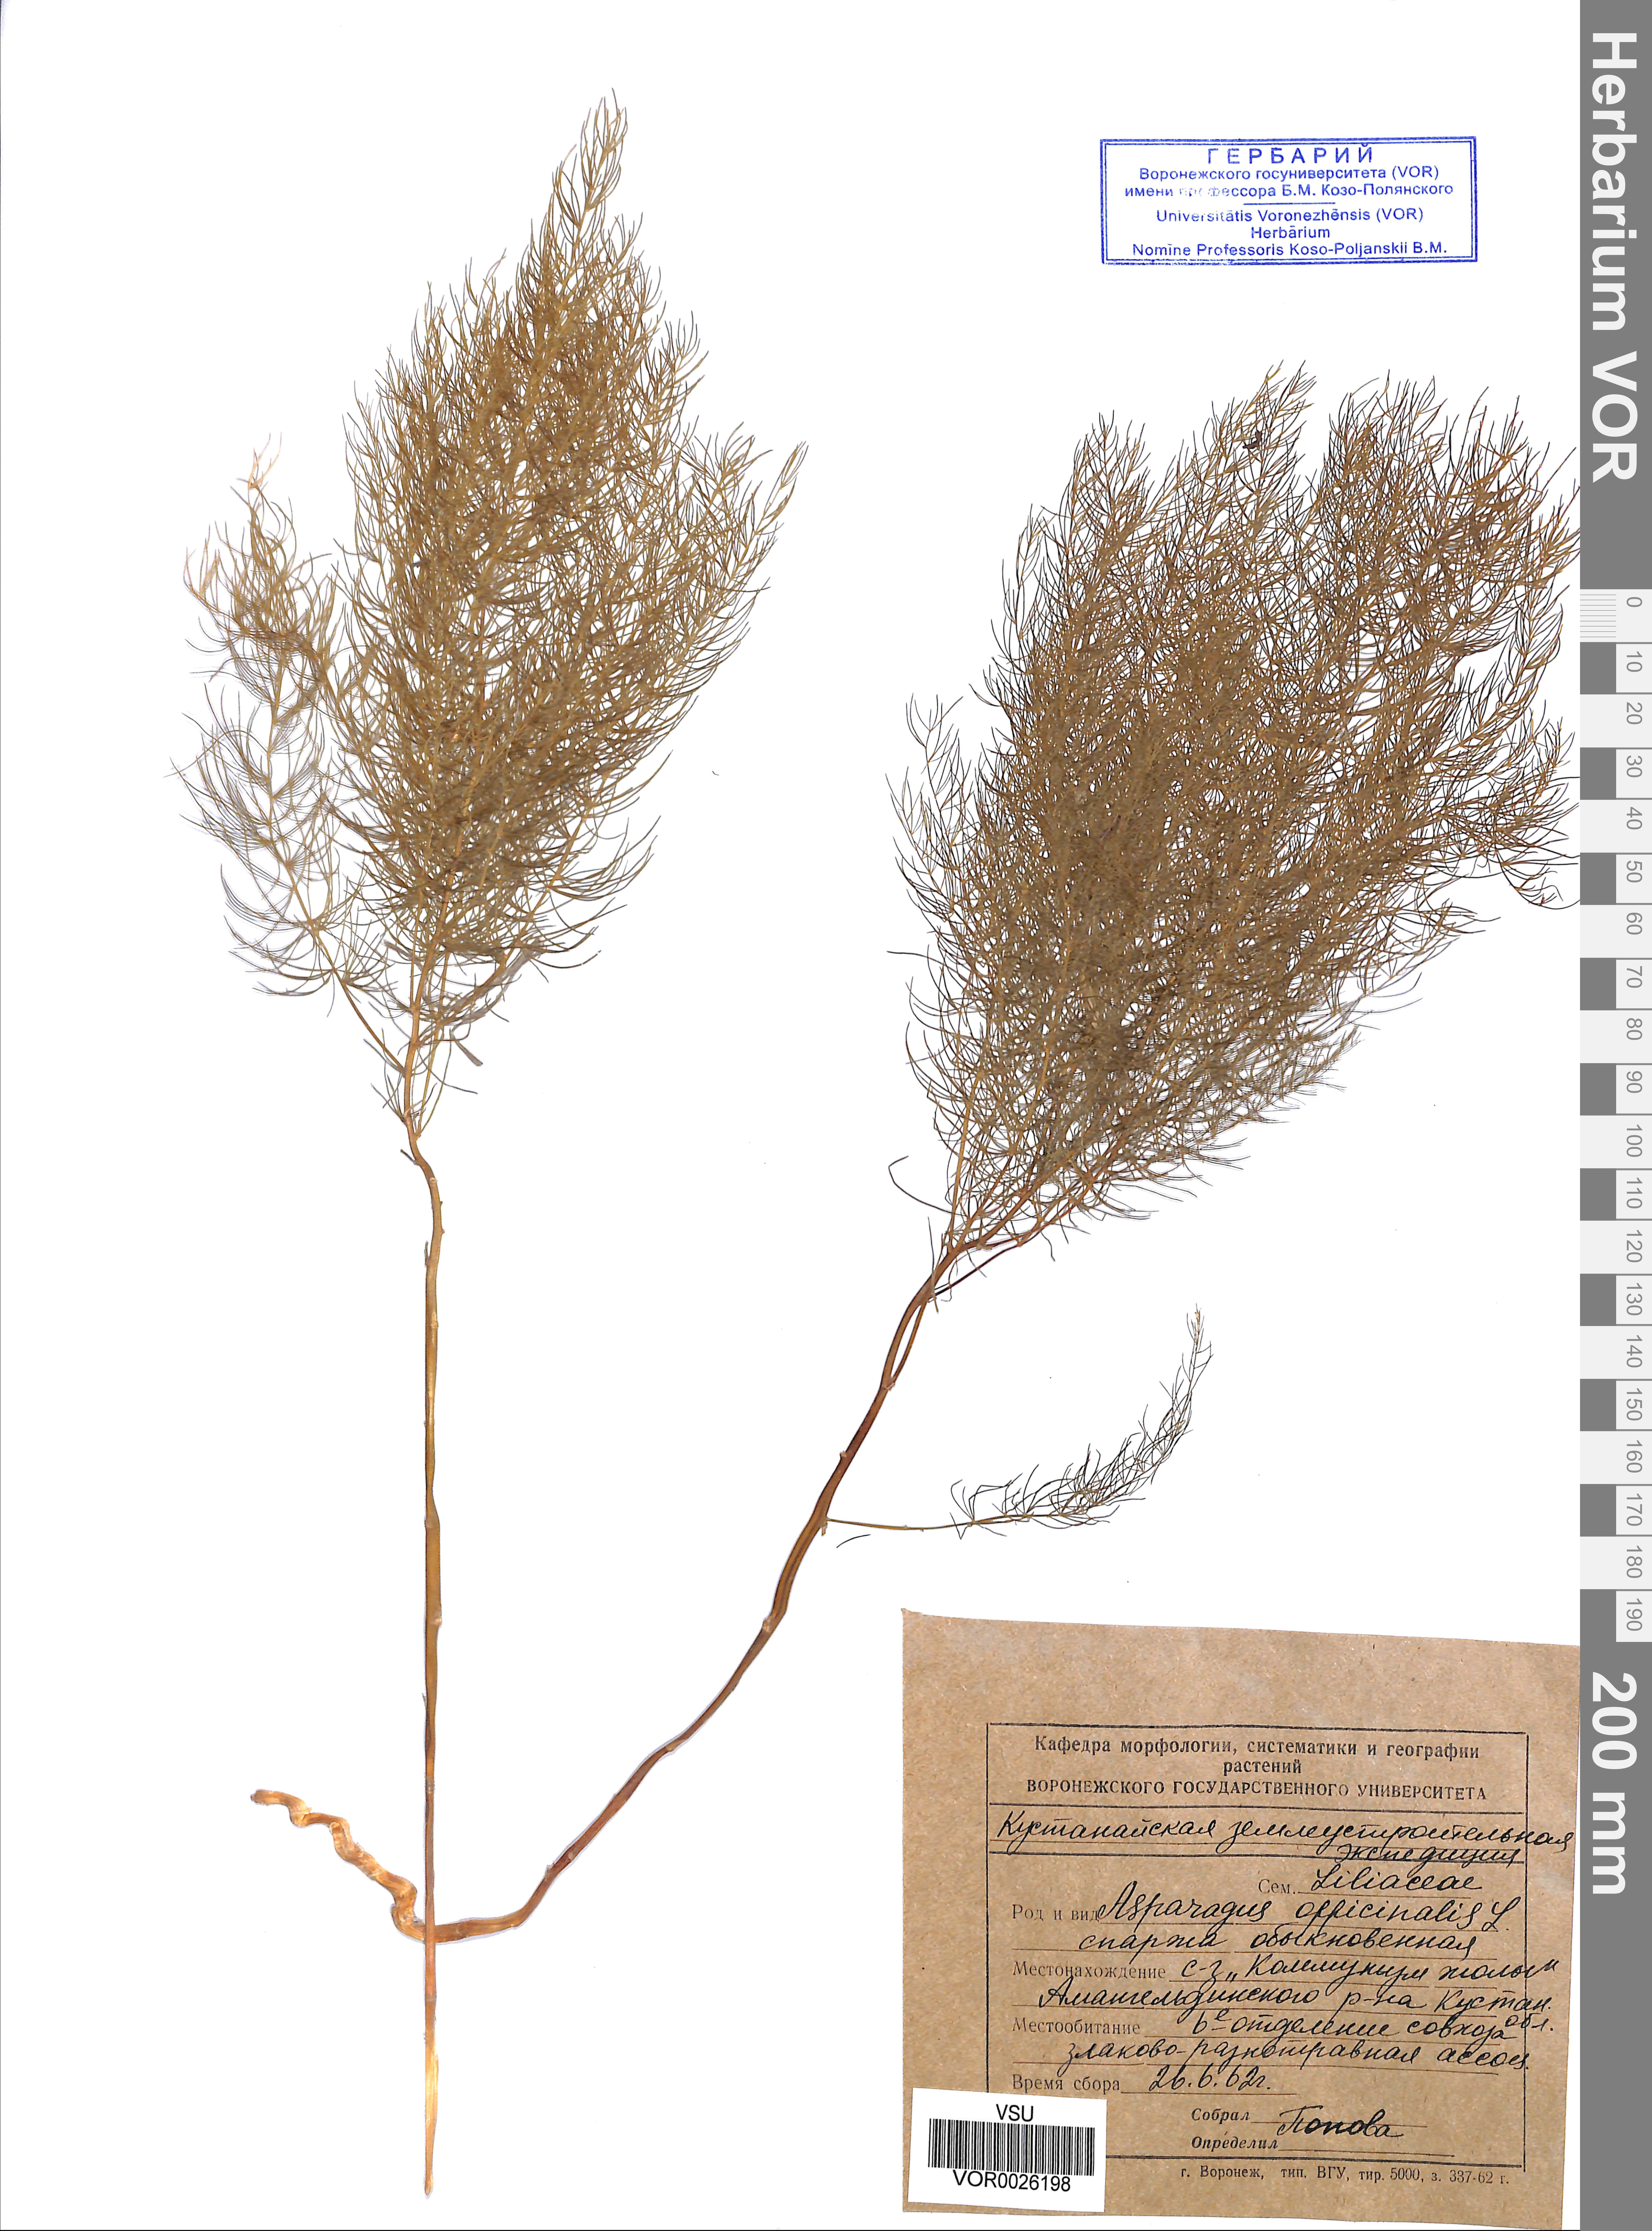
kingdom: Plantae
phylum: Tracheophyta
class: Liliopsida
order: Asparagales
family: Asparagaceae
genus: Asparagus
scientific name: Asparagus officinalis
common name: Garden asparagus
